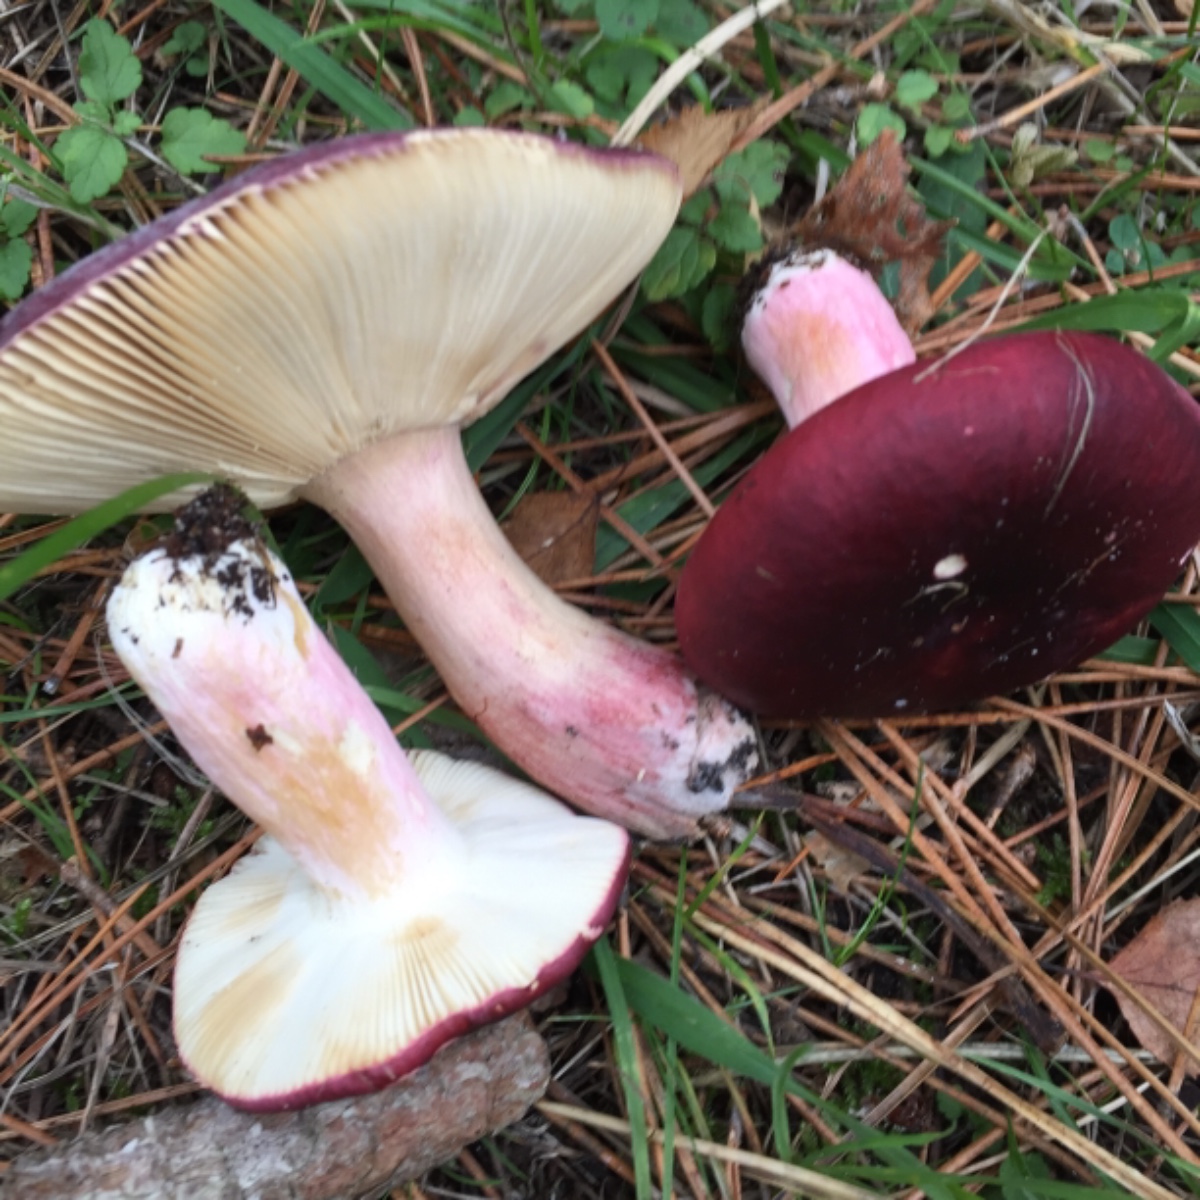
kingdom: Fungi
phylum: Basidiomycota
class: Agaricomycetes
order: Russulales
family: Russulaceae
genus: Russula
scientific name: Russula xerampelina
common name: hummer-skørhat
